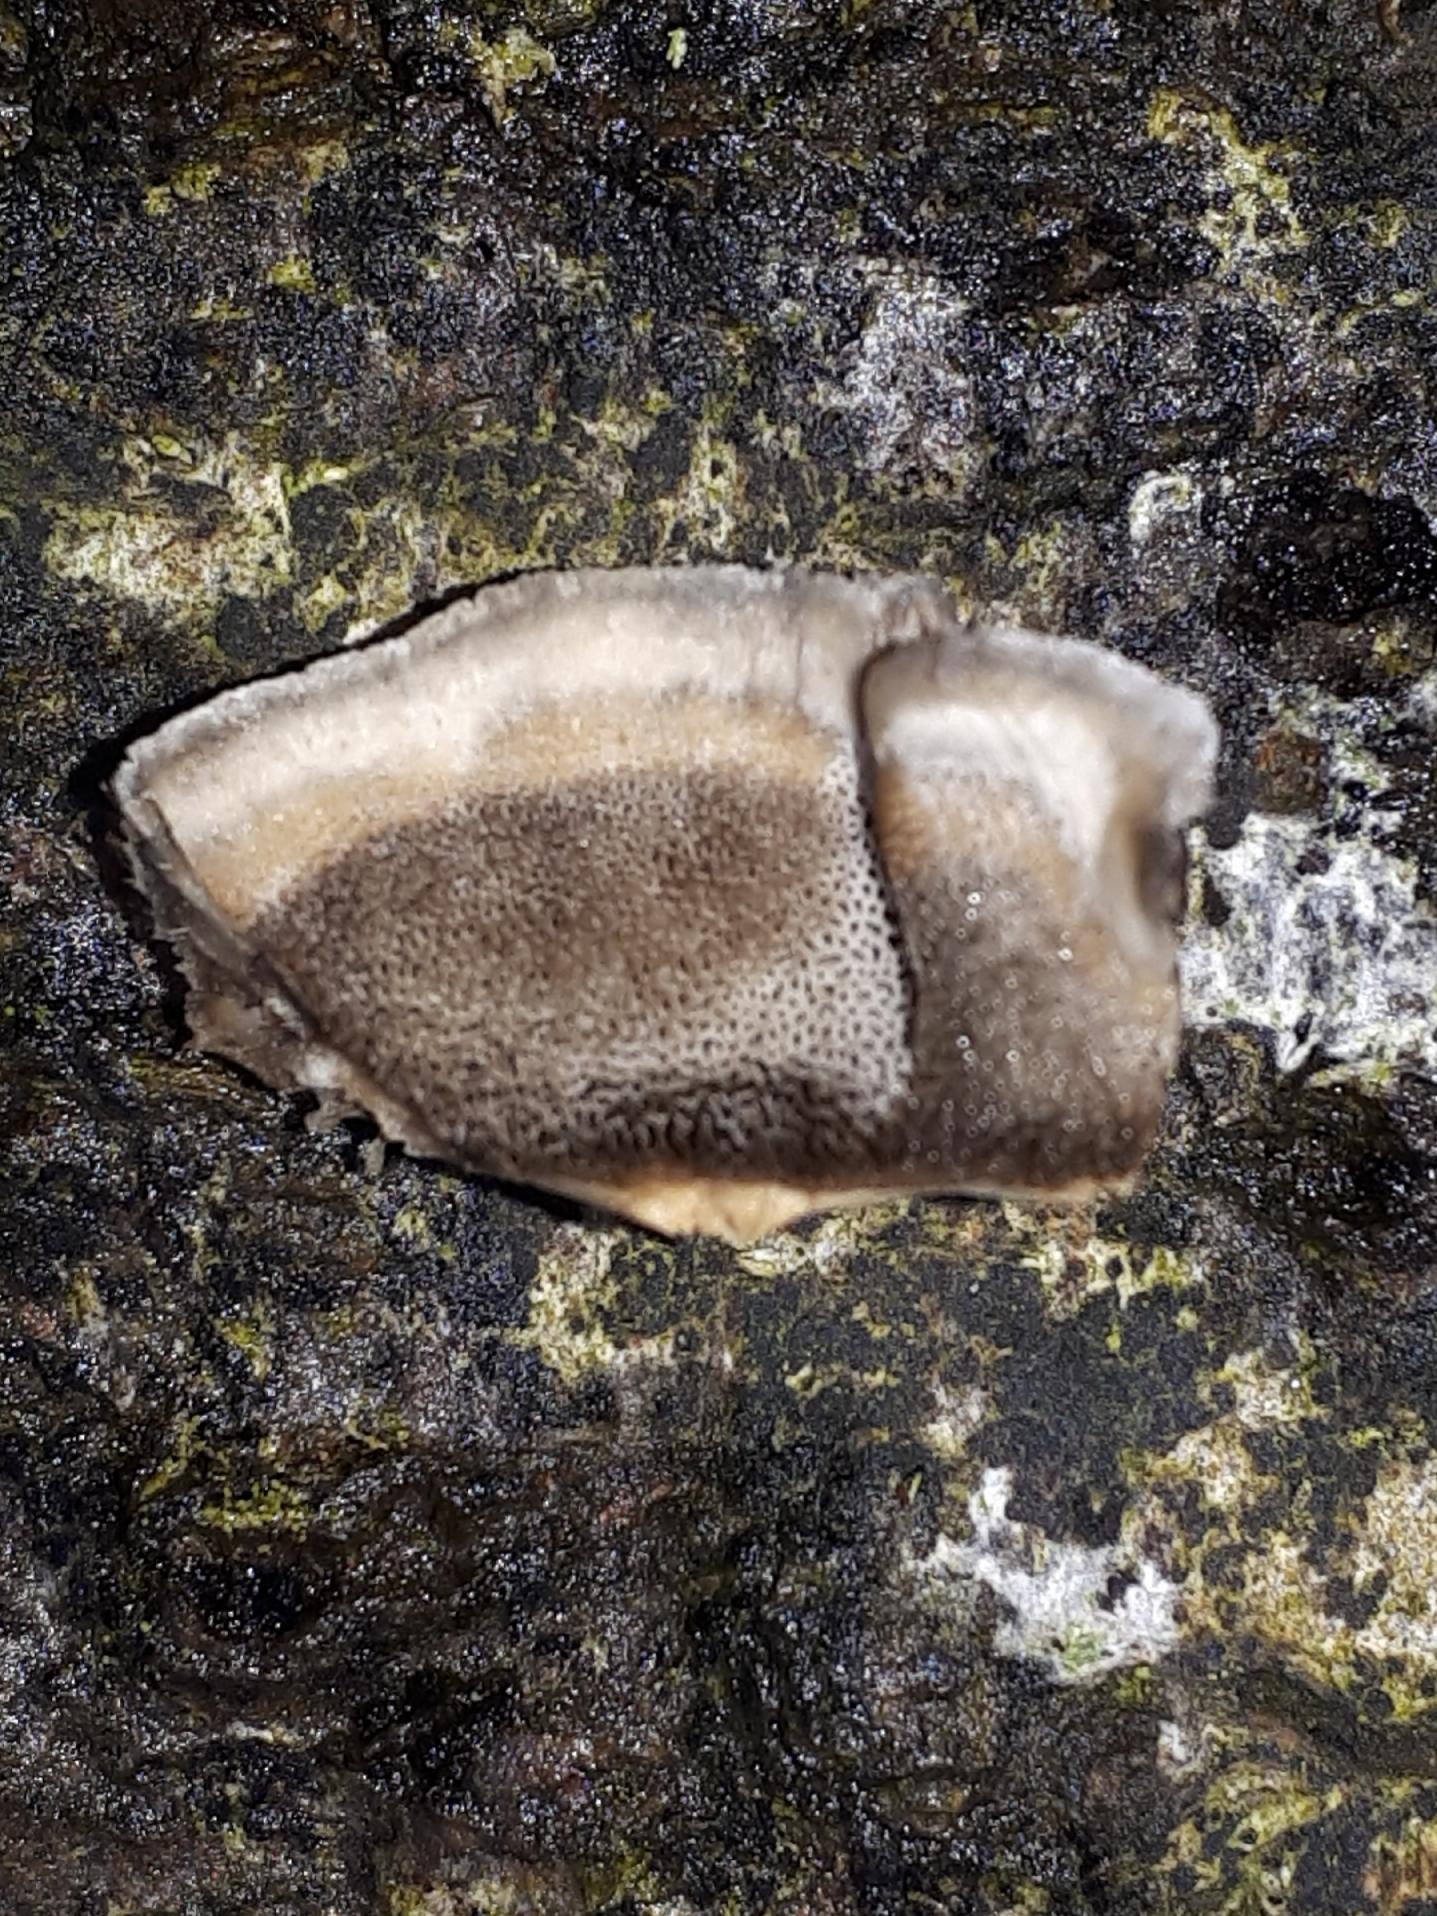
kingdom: Fungi
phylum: Basidiomycota
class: Agaricomycetes
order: Polyporales
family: Phanerochaetaceae
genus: Bjerkandera
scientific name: Bjerkandera adusta
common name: sveden sodporesvamp
